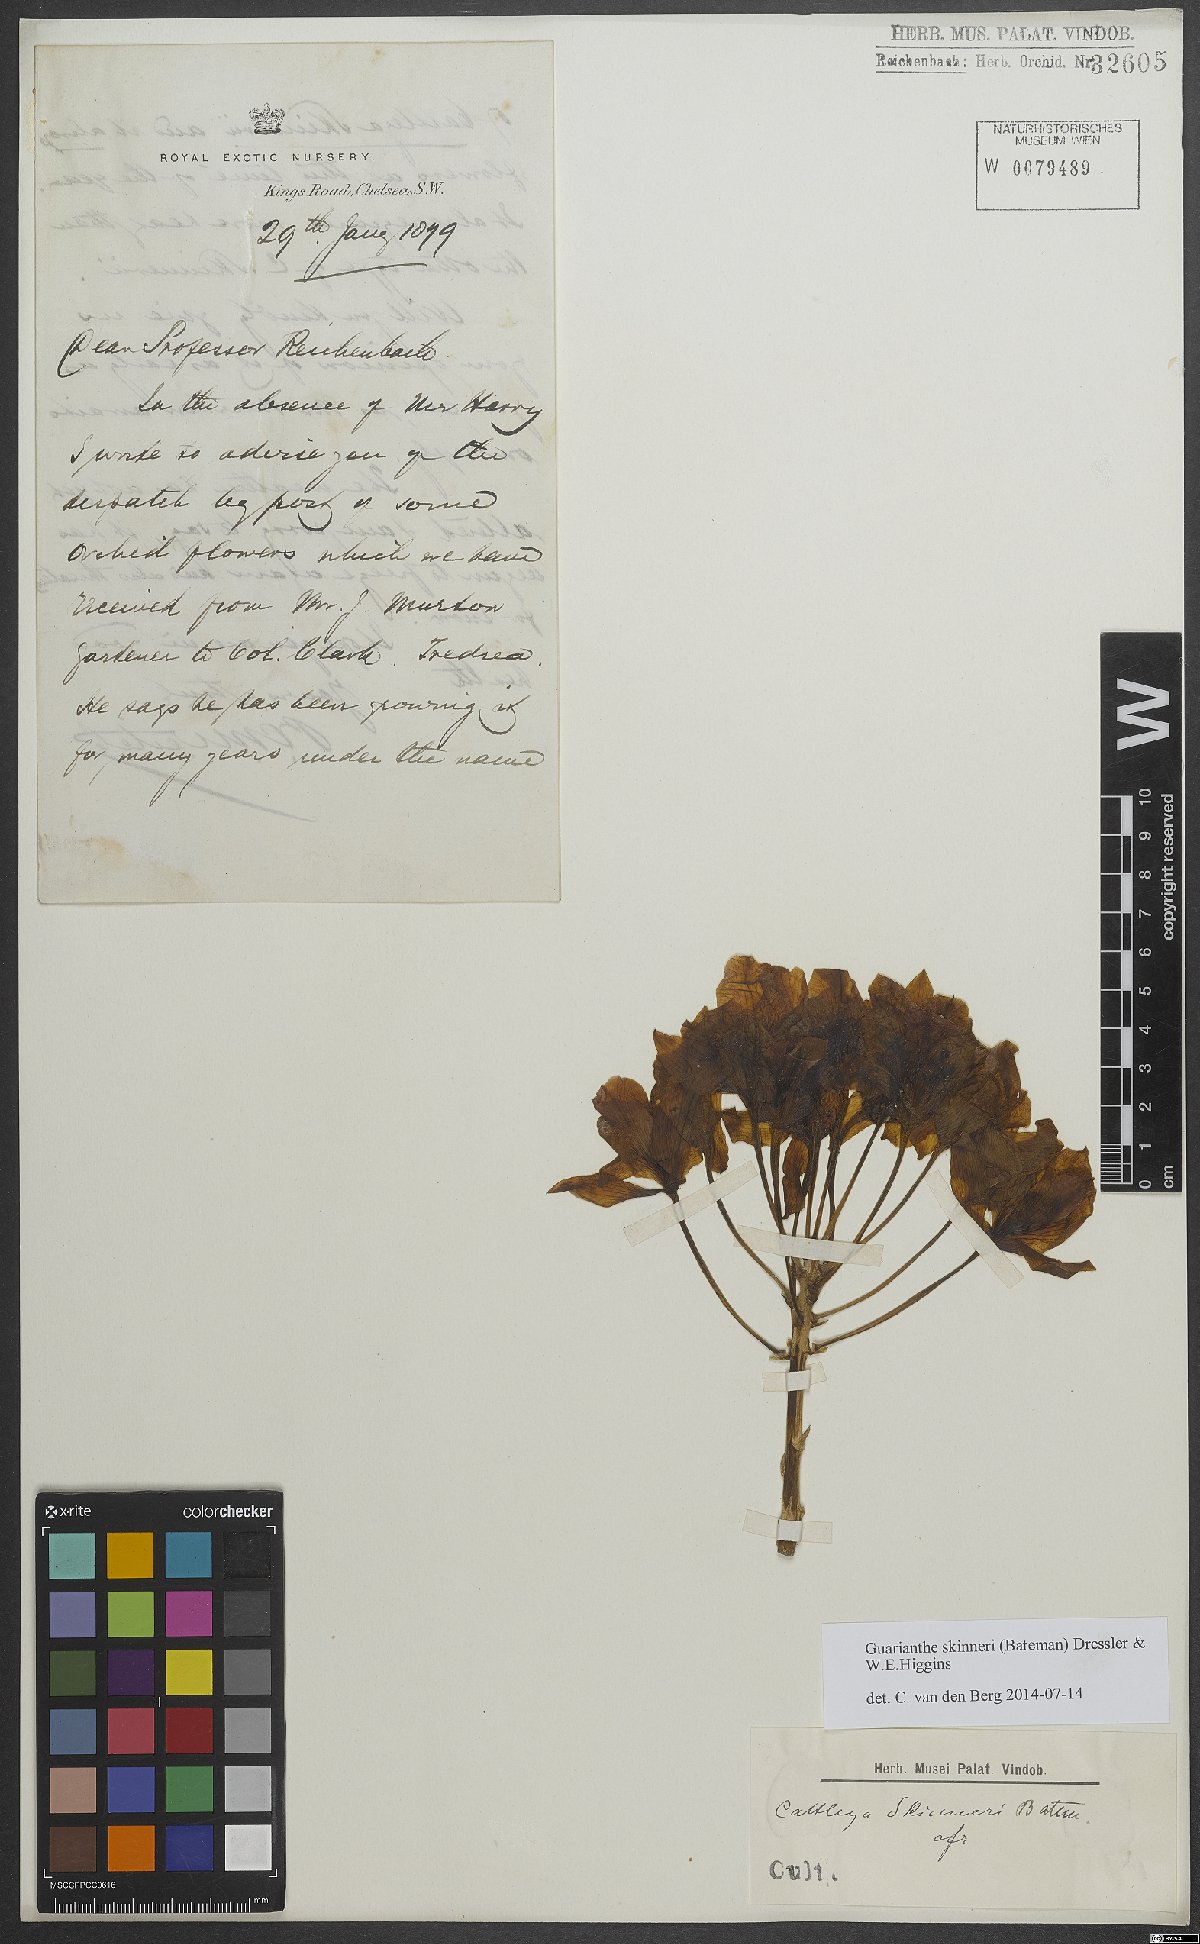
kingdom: Plantae
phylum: Tracheophyta
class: Liliopsida
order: Asparagales
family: Orchidaceae
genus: Guarianthe
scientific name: Guarianthe skinneri
